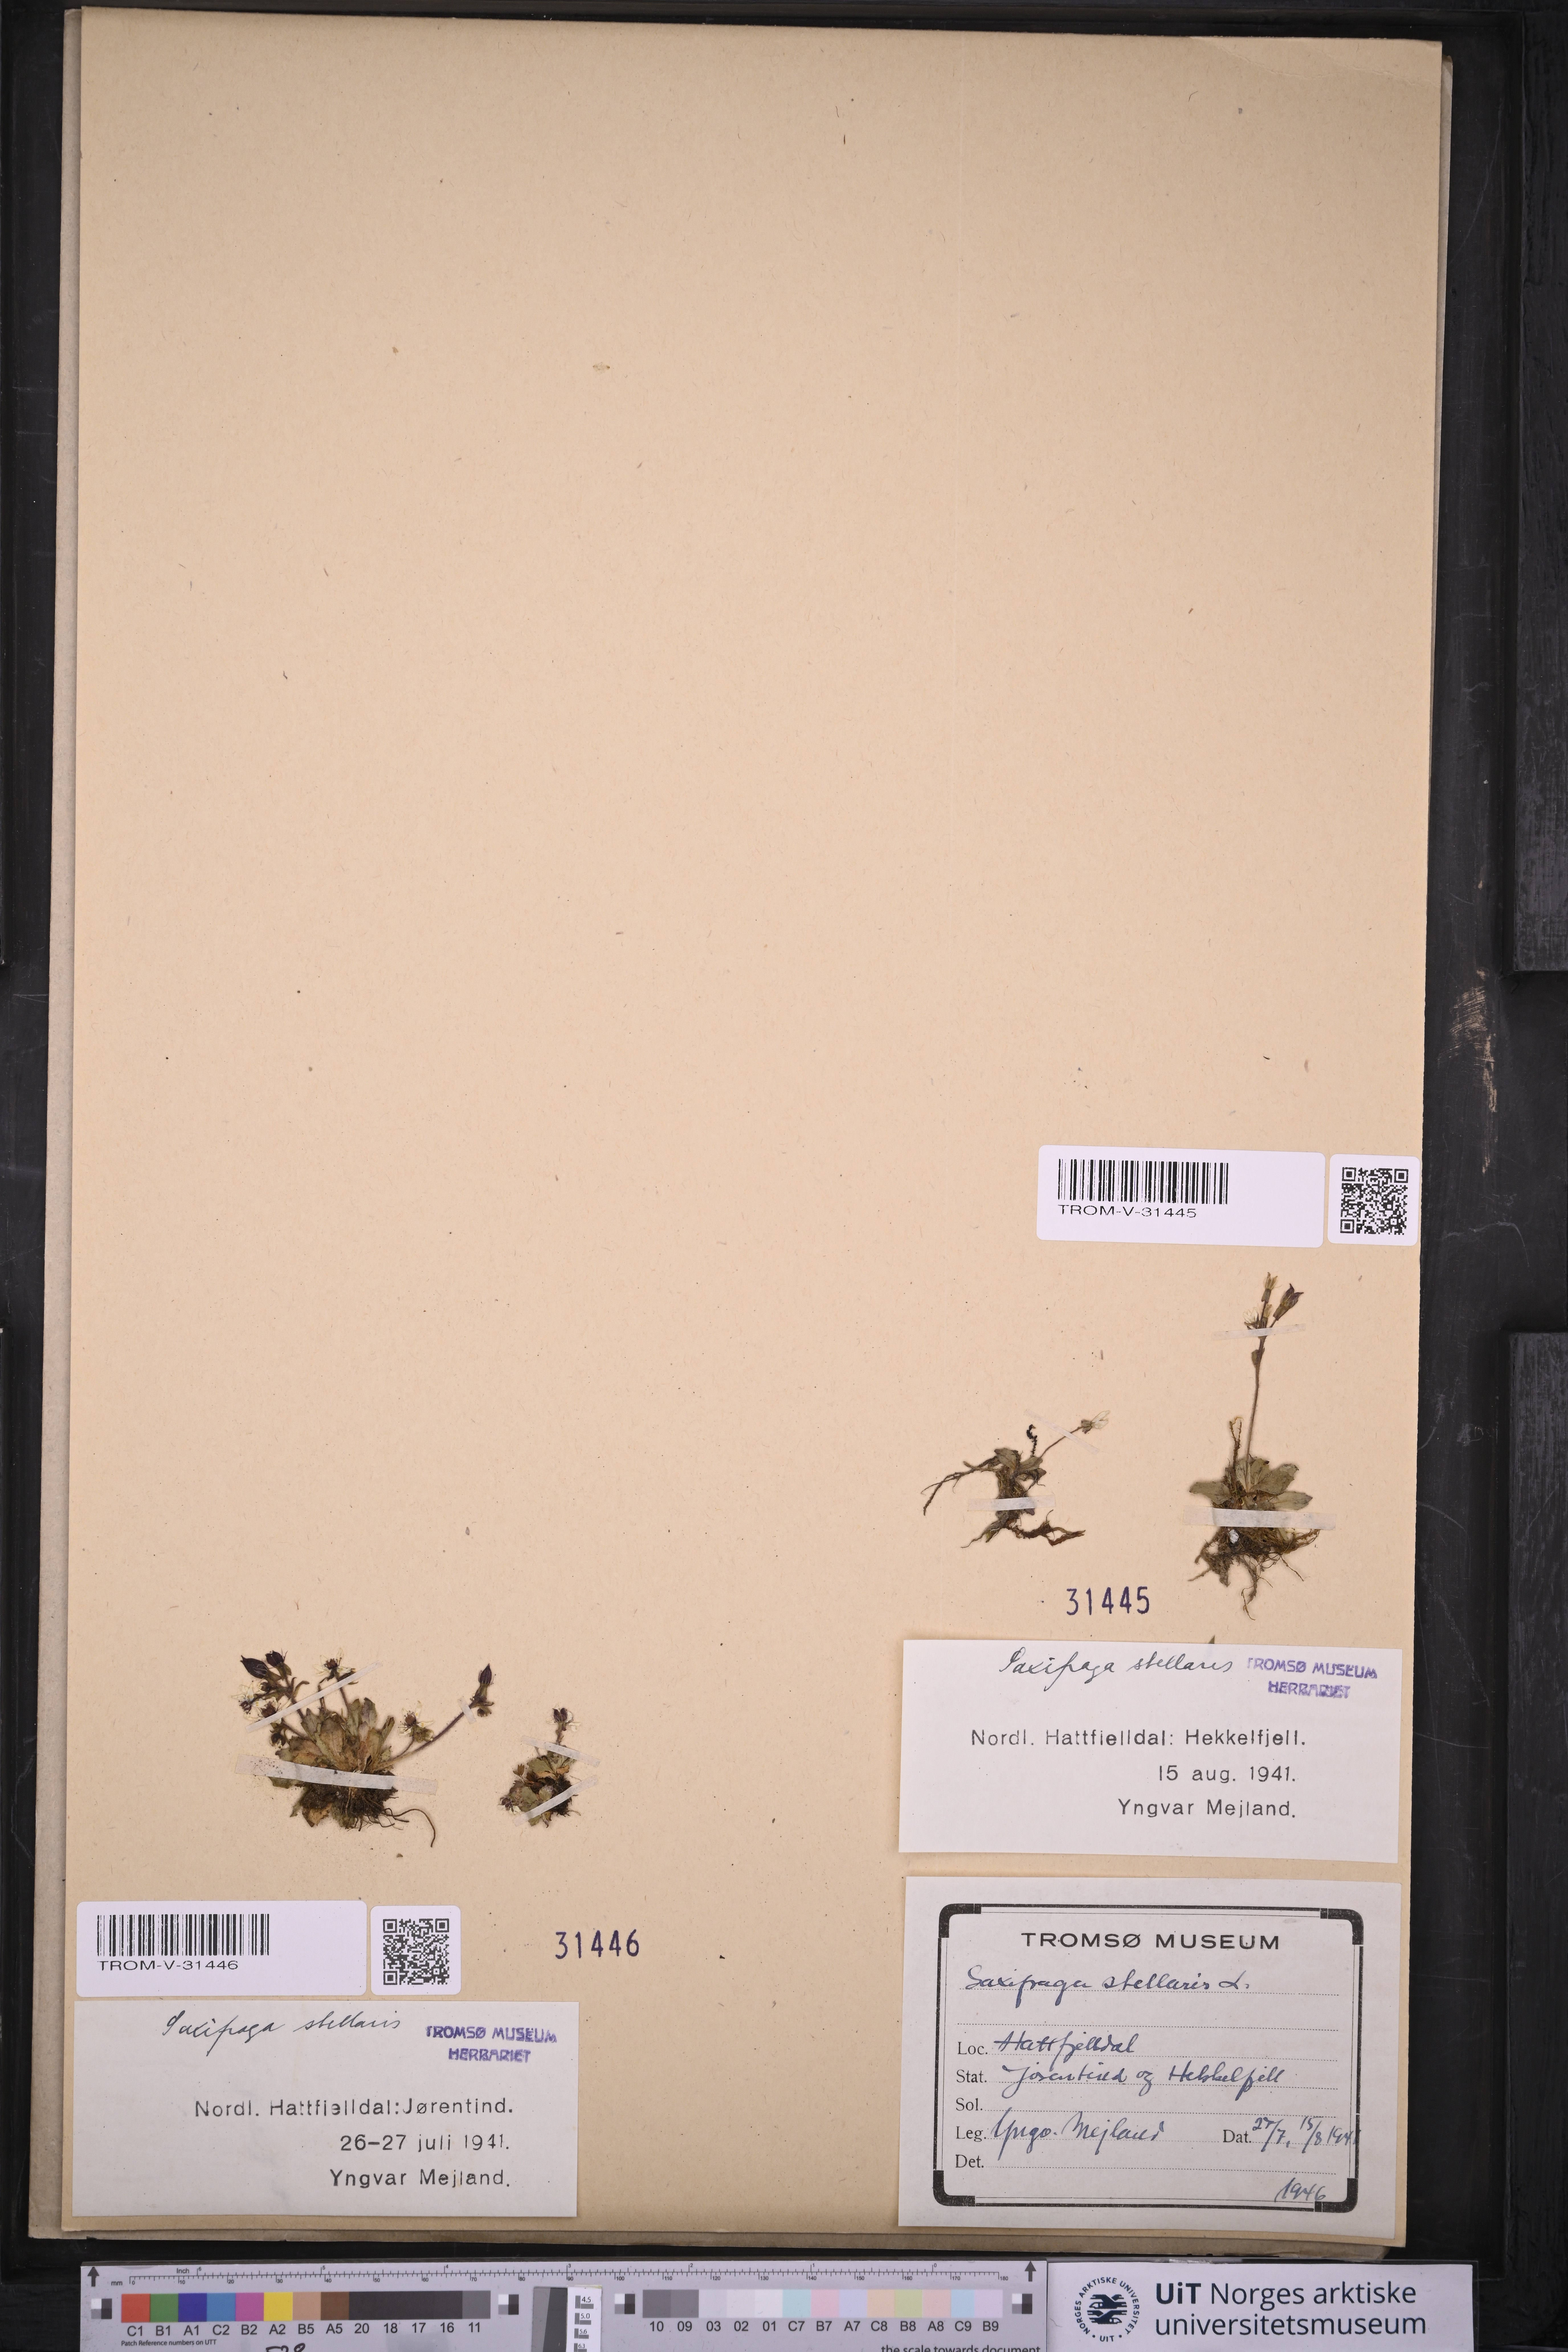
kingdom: Plantae
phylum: Tracheophyta
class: Magnoliopsida
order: Saxifragales
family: Saxifragaceae
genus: Micranthes
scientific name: Micranthes stellaris
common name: Starry saxifrage
